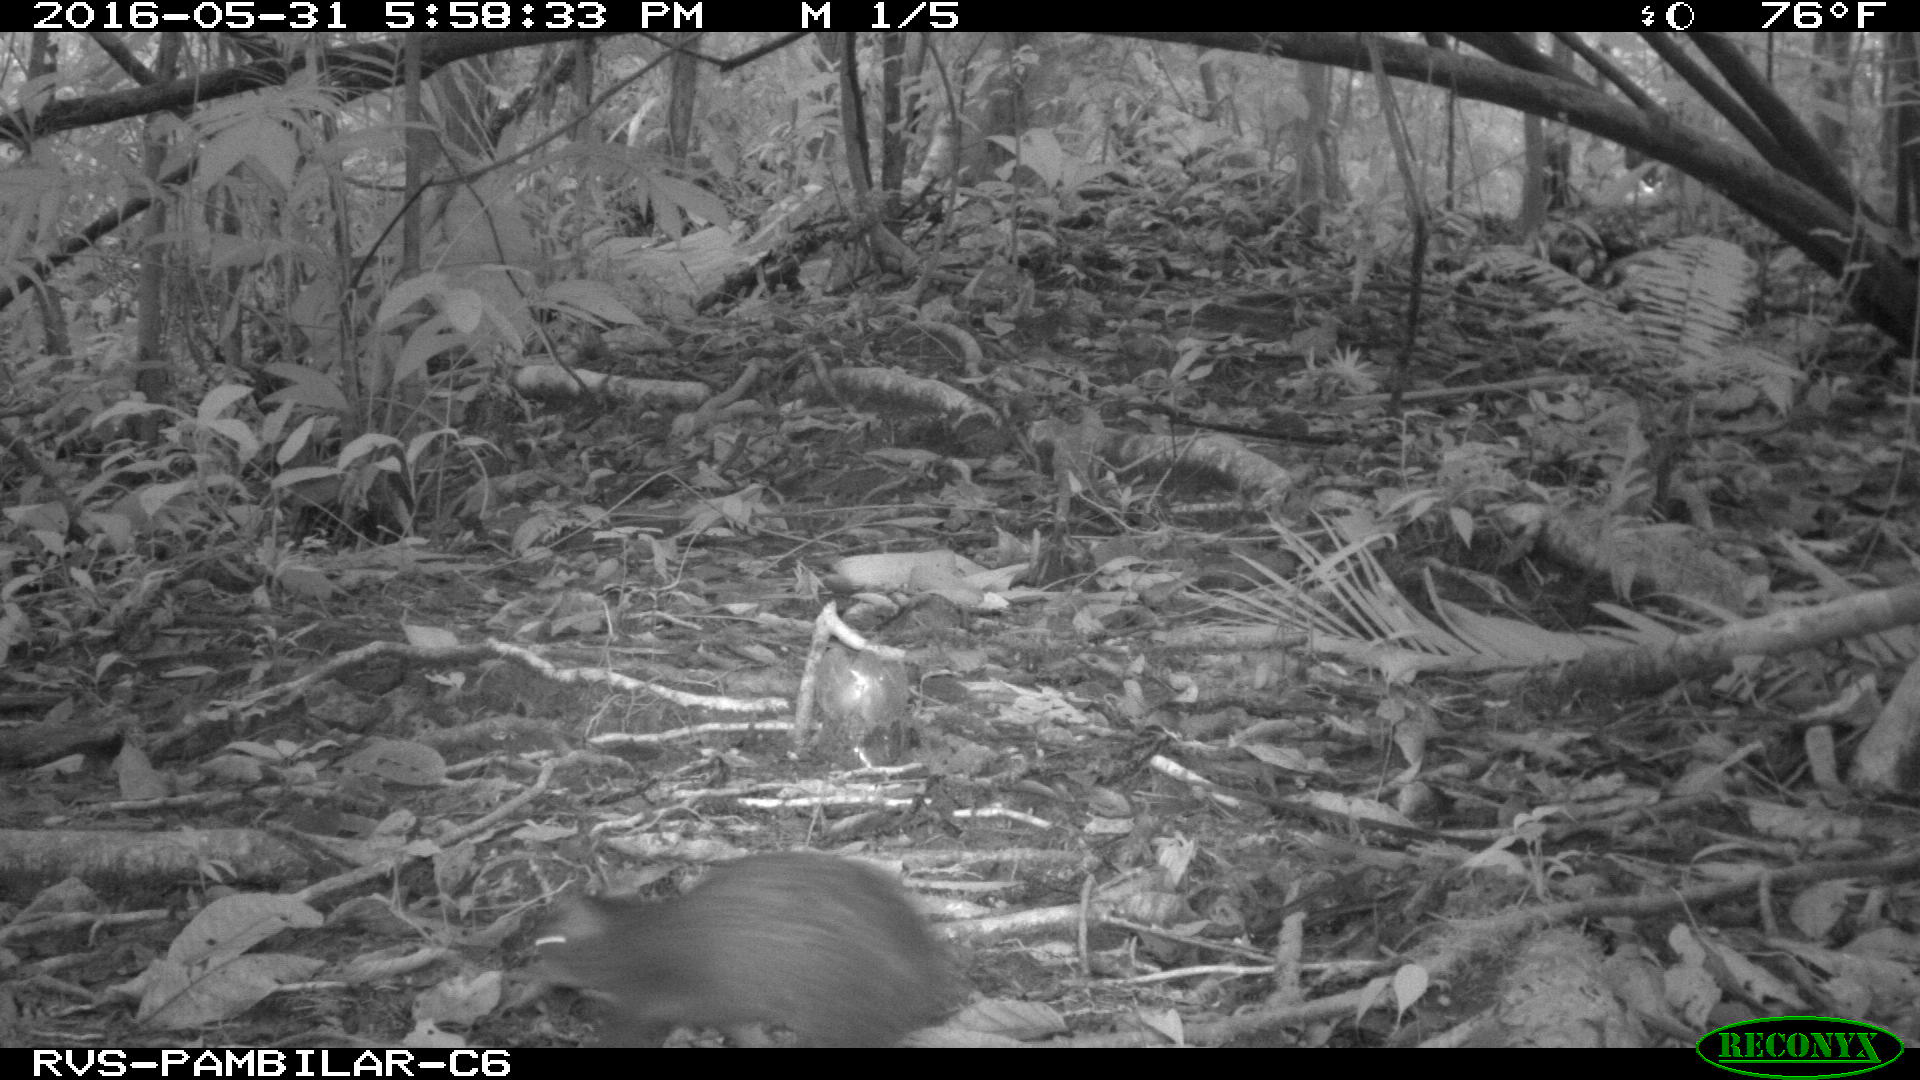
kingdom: Animalia
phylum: Chordata
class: Mammalia
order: Rodentia
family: Dasyproctidae
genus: Dasyprocta
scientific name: Dasyprocta punctata
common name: Central american agouti
